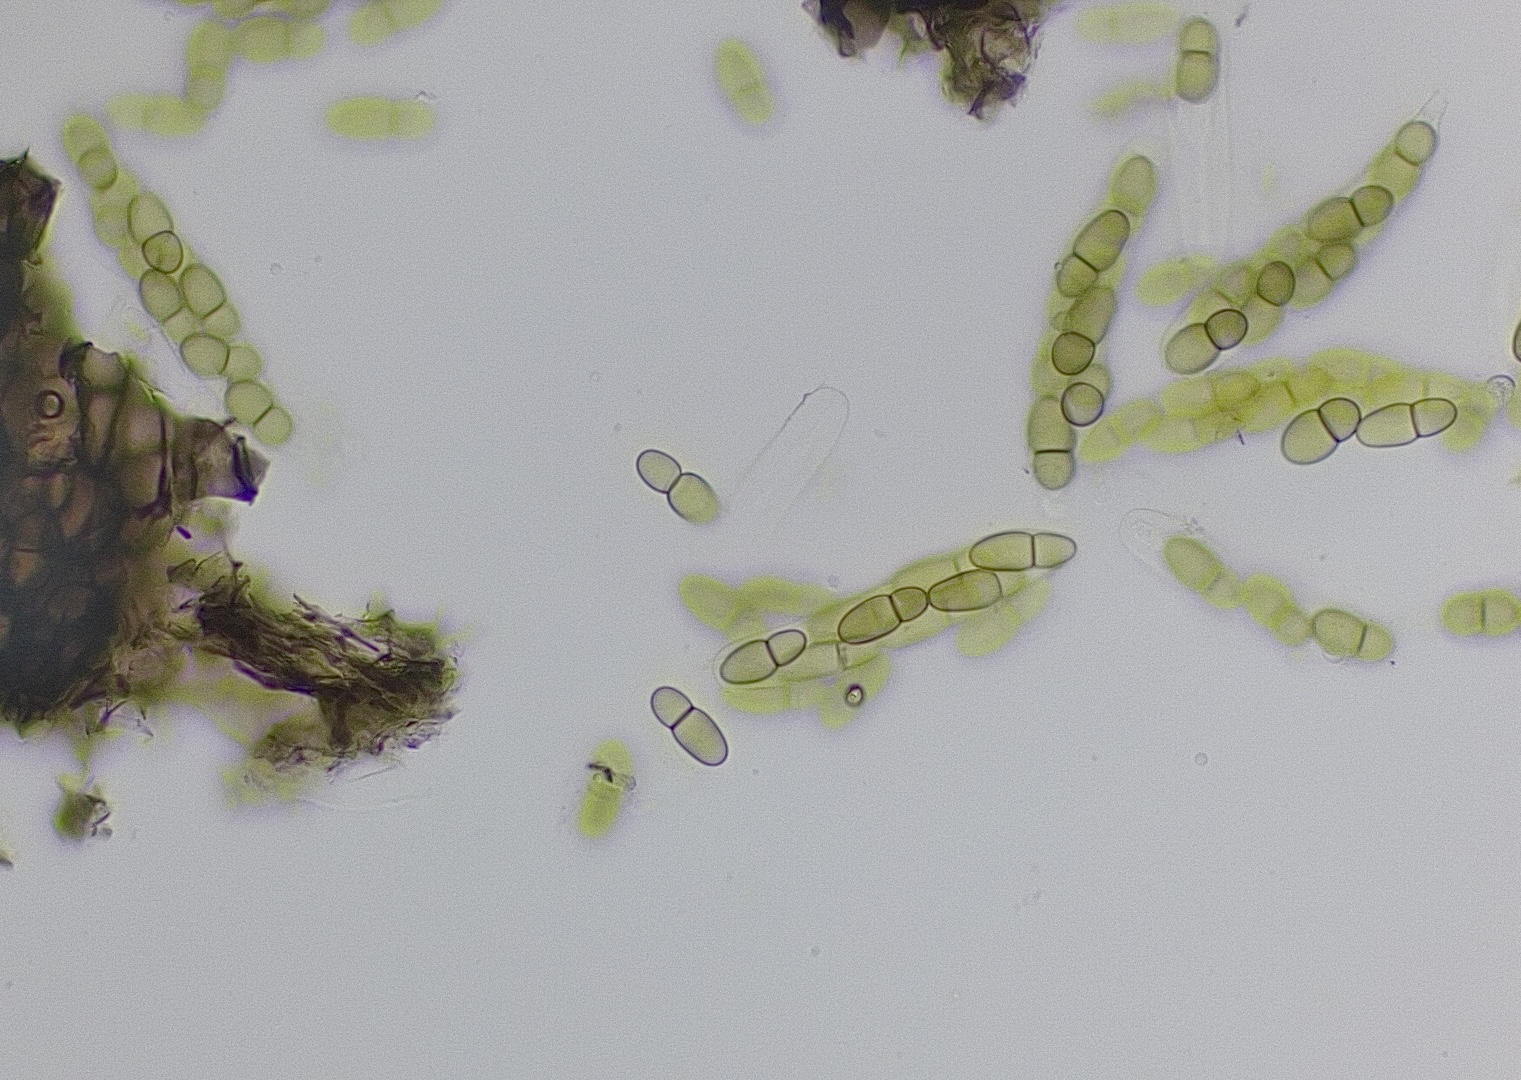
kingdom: Fungi
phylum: Ascomycota
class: Dothideomycetes
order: Dothideales
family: Dothideaceae
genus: Dothidea
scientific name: Dothidea sambuci
